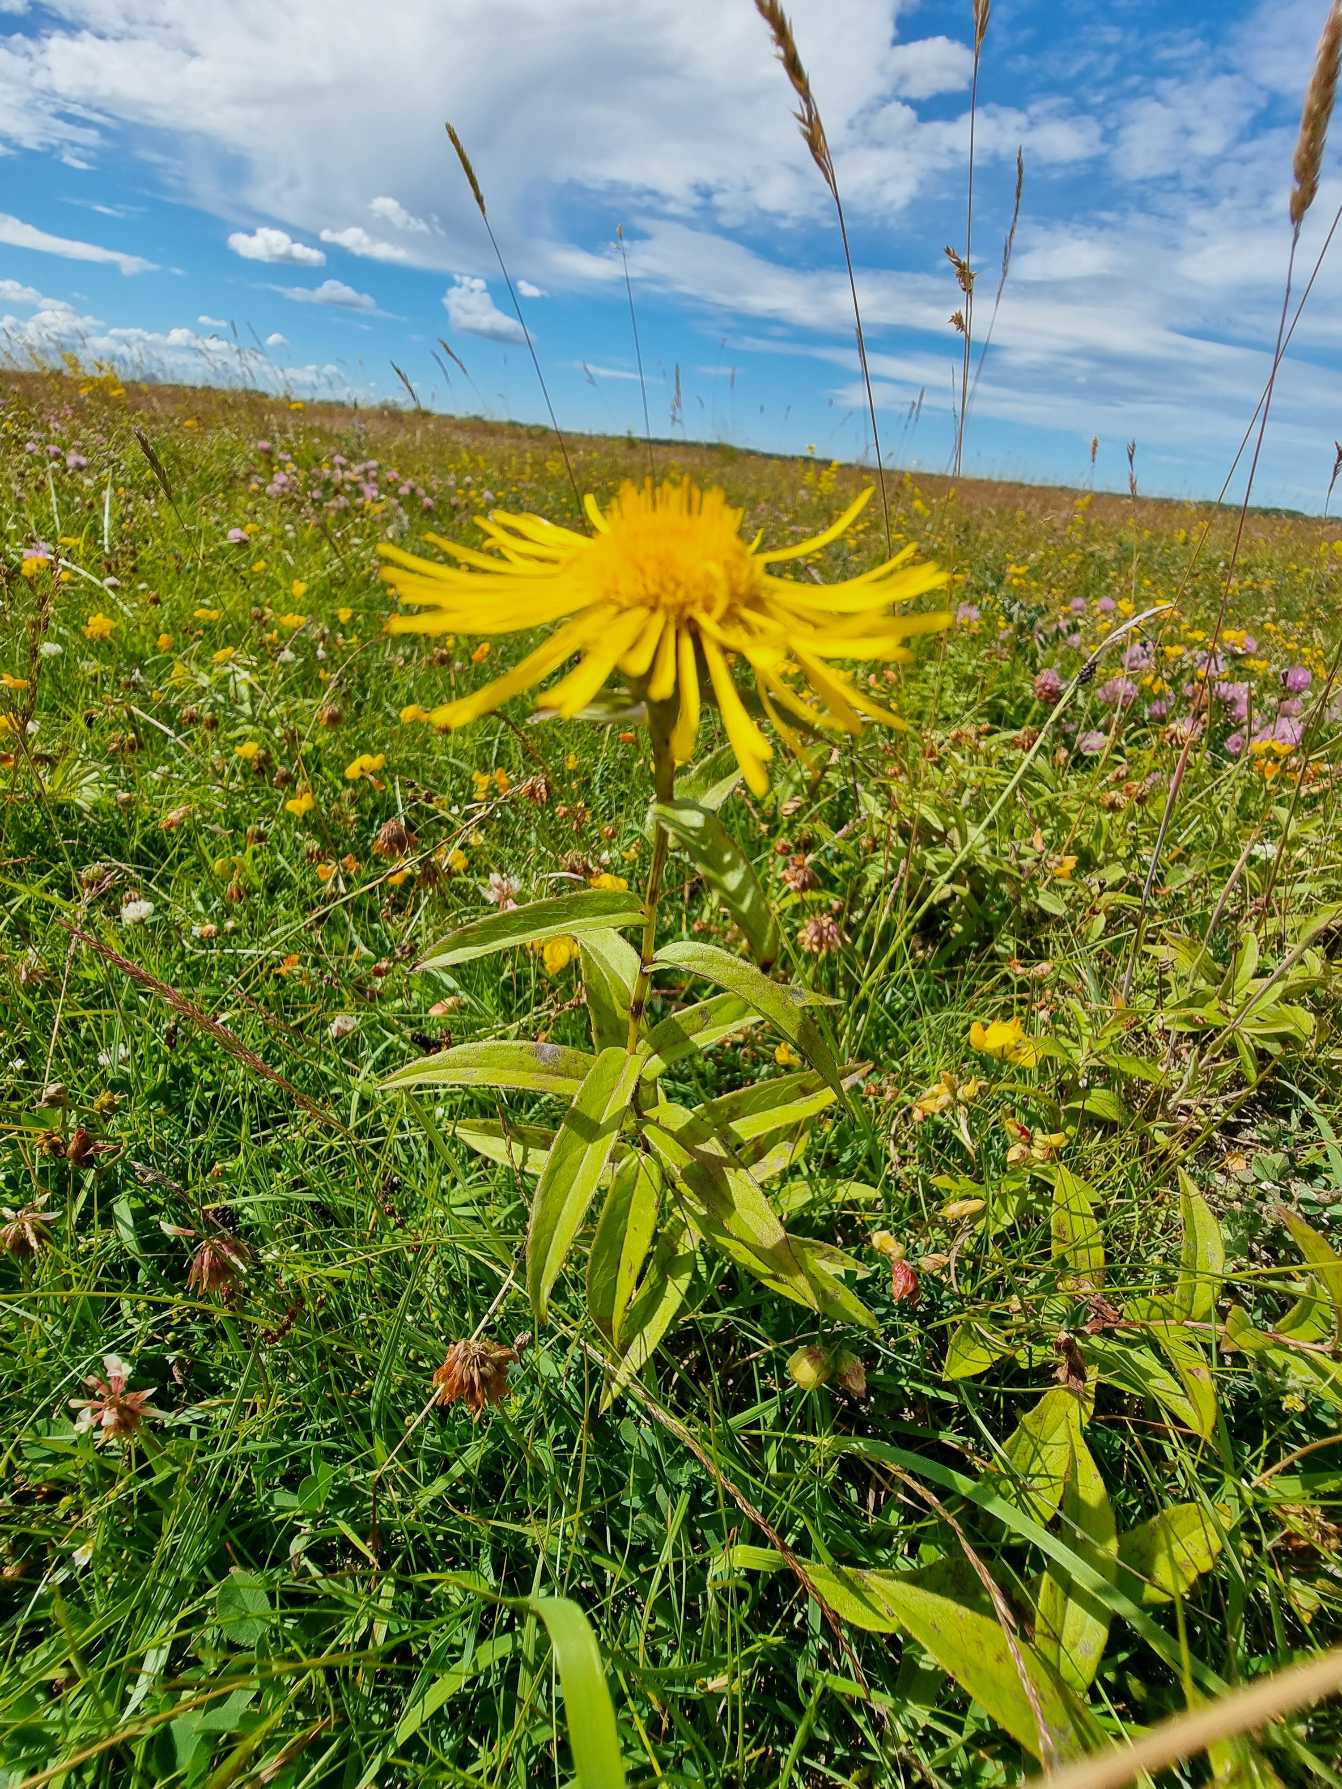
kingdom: Plantae
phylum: Tracheophyta
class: Magnoliopsida
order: Asterales
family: Asteraceae
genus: Pentanema
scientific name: Pentanema salicinum
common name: Pile-alant
